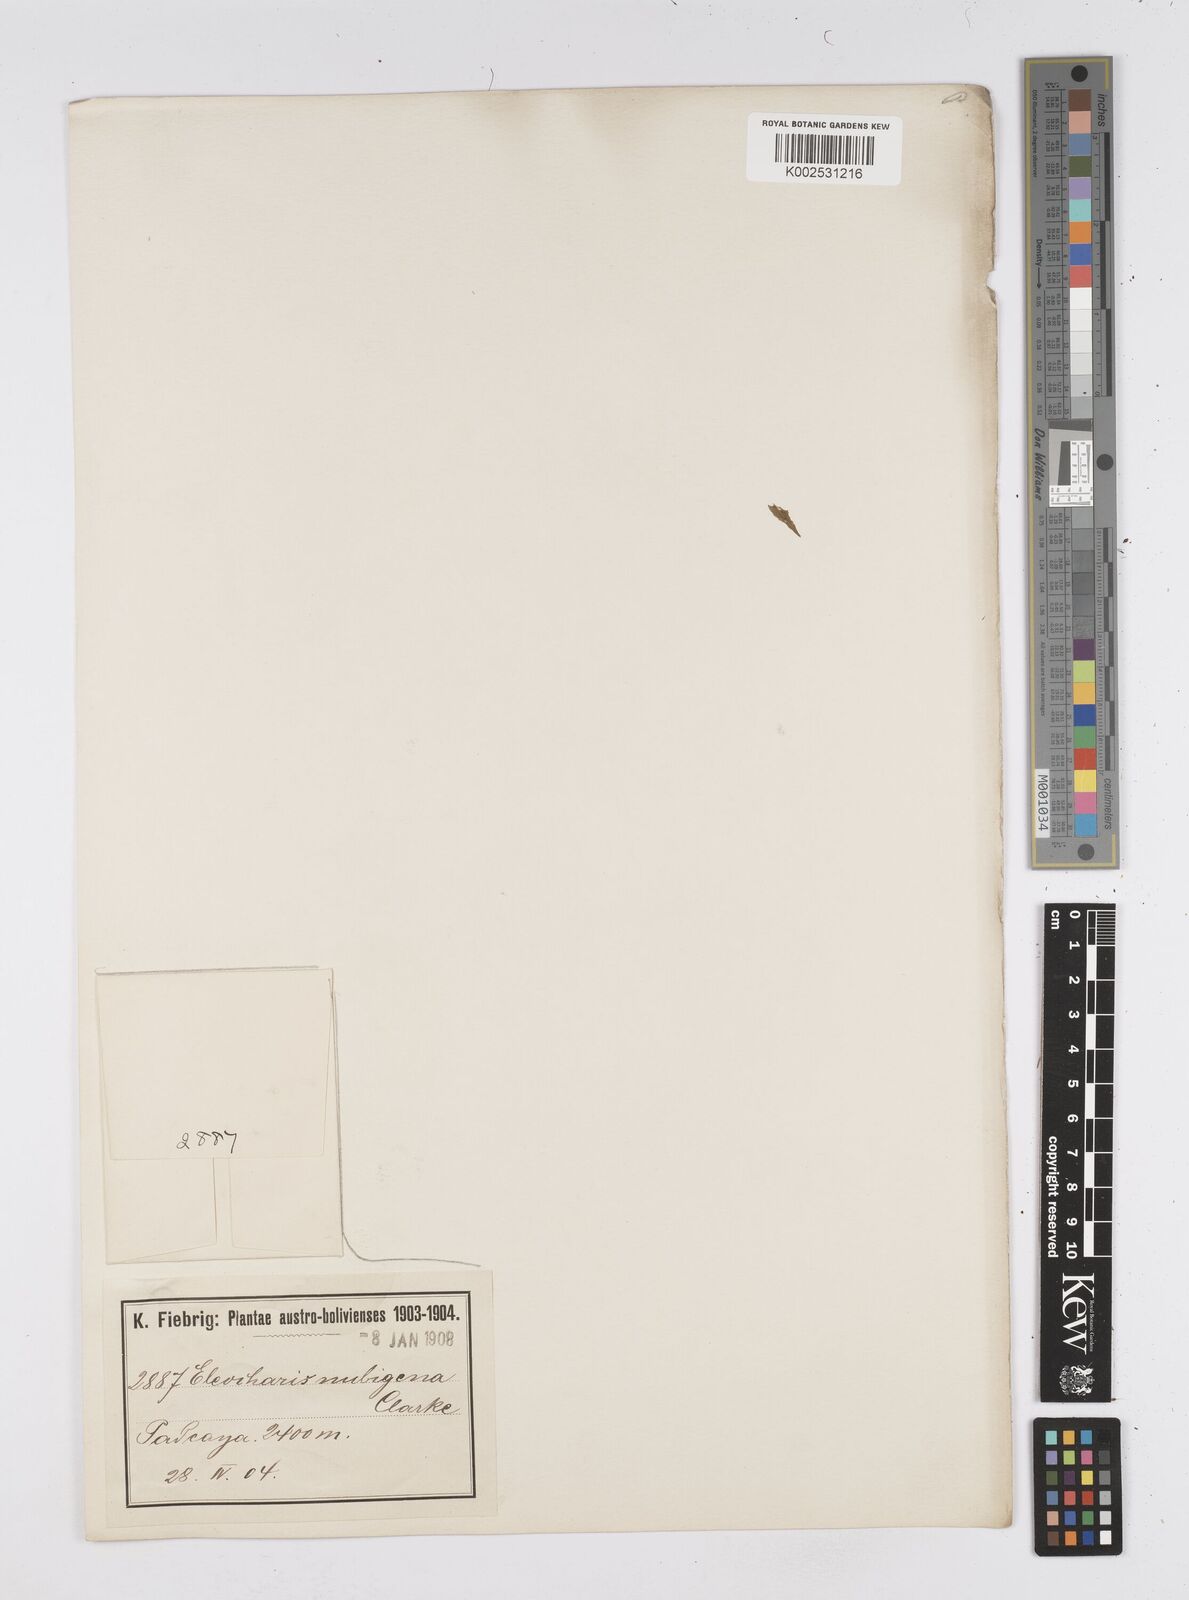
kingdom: Plantae
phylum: Tracheophyta
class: Liliopsida
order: Poales
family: Cyperaceae
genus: Eleocharis
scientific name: Eleocharis albibracteata
